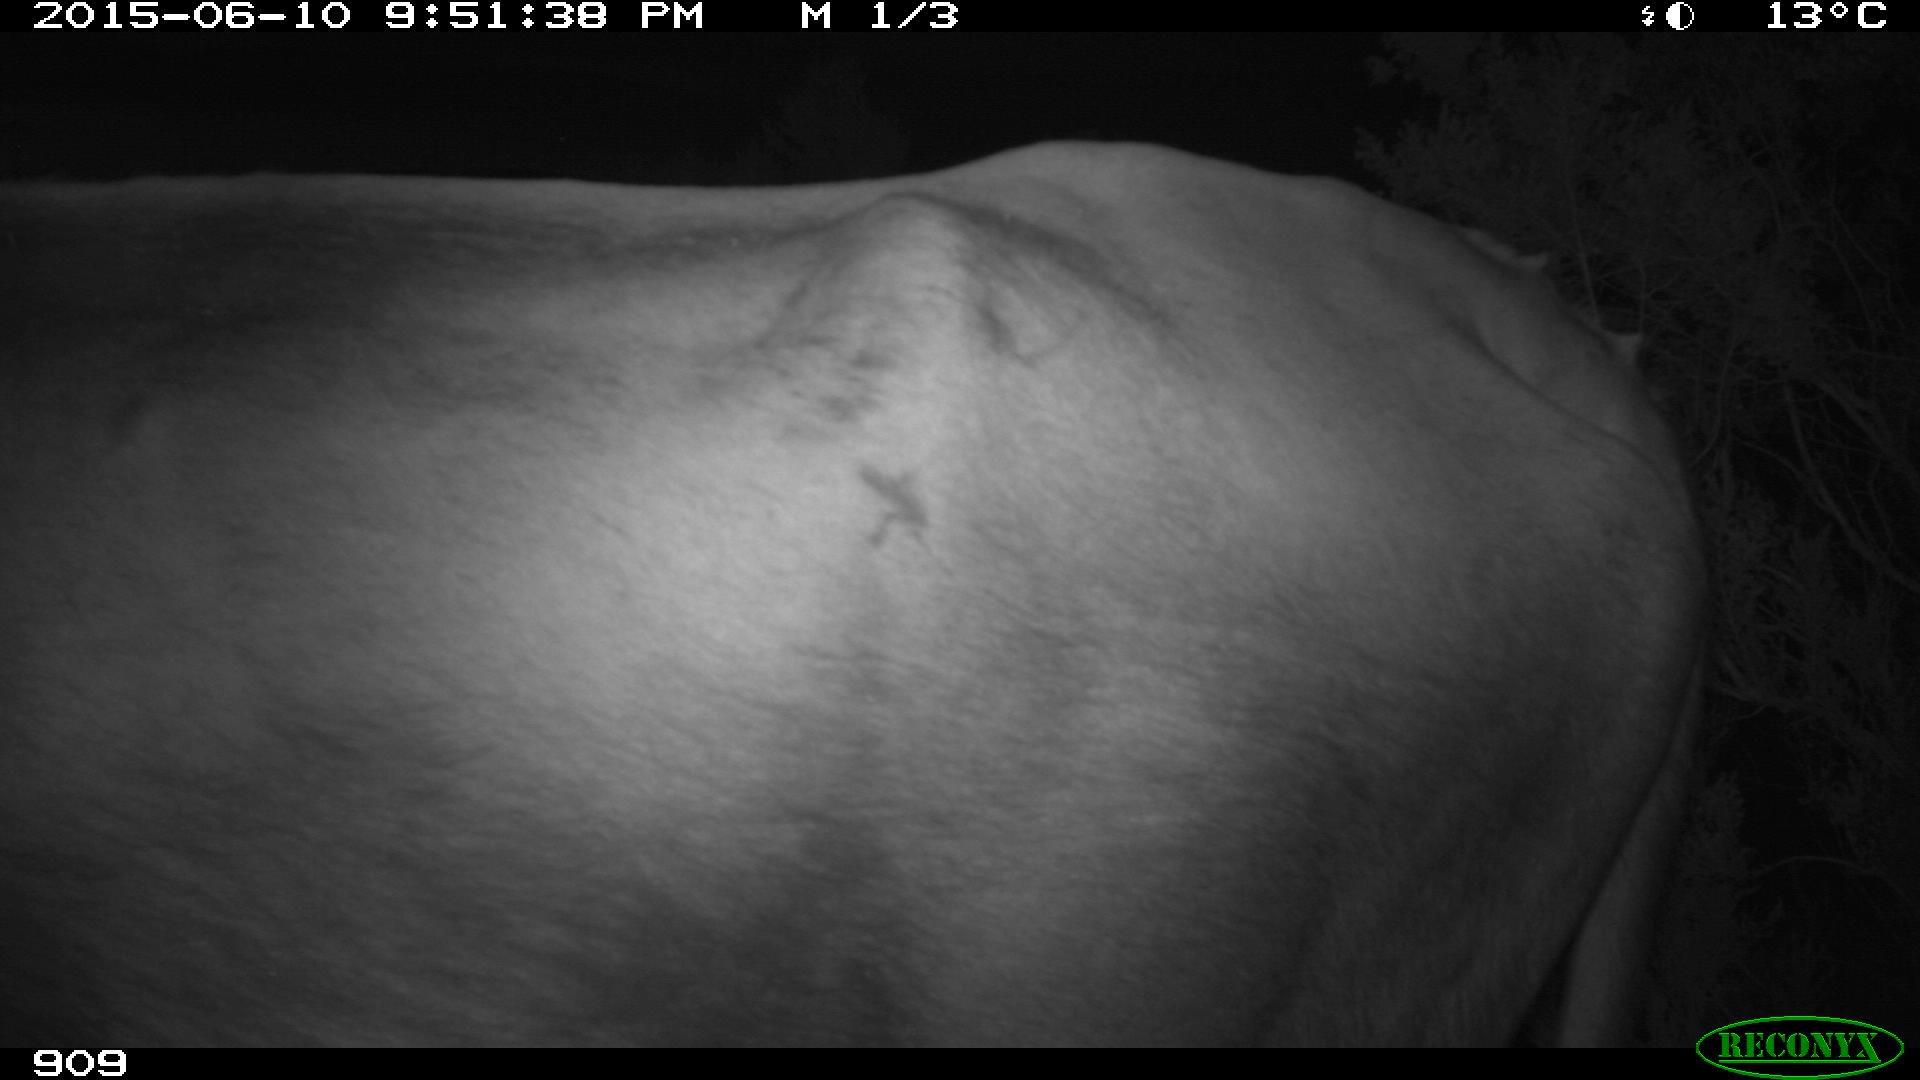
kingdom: Animalia
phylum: Chordata
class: Mammalia
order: Artiodactyla
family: Bovidae
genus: Bos
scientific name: Bos taurus
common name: Domesticated cattle
